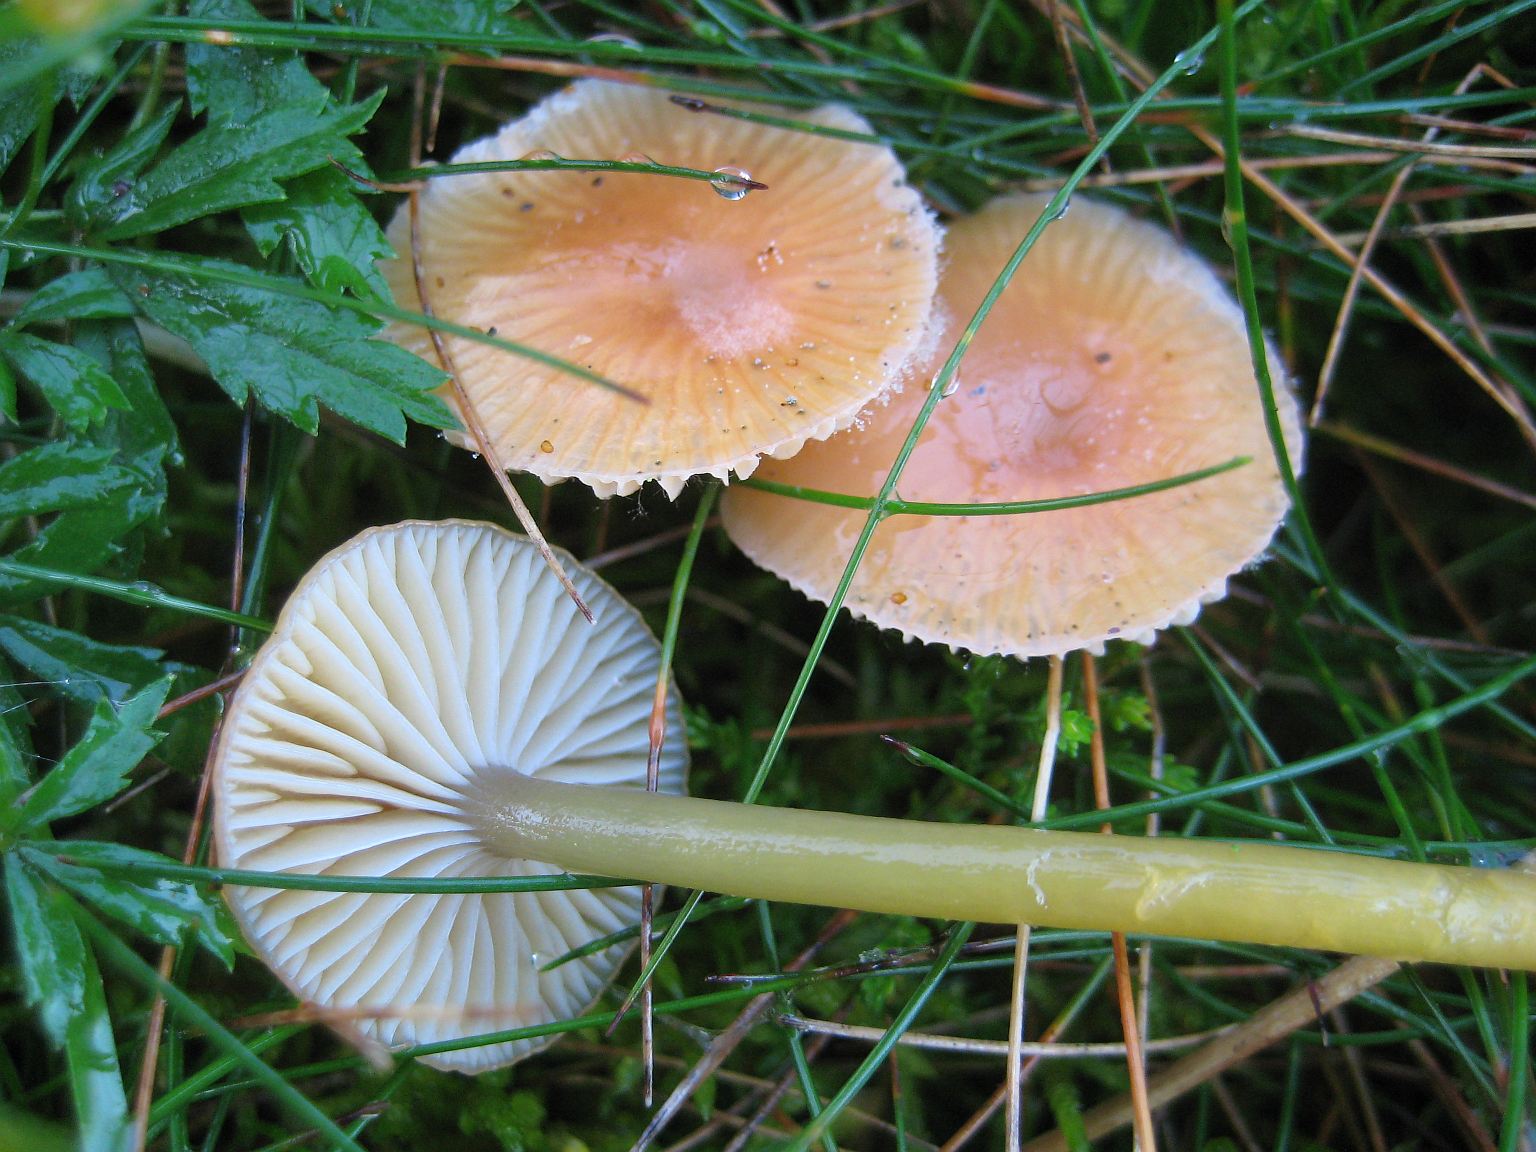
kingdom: Fungi
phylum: Basidiomycota
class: Agaricomycetes
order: Agaricales
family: Hygrophoraceae
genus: Gliophorus
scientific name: Gliophorus laetus
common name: brusk-vokshat
